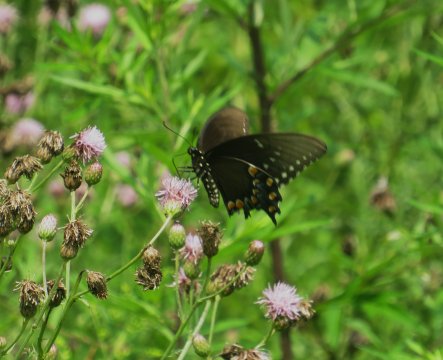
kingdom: Animalia
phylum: Arthropoda
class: Insecta
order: Lepidoptera
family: Papilionidae
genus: Pterourus
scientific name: Pterourus troilus
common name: Spicebush Swallowtail
